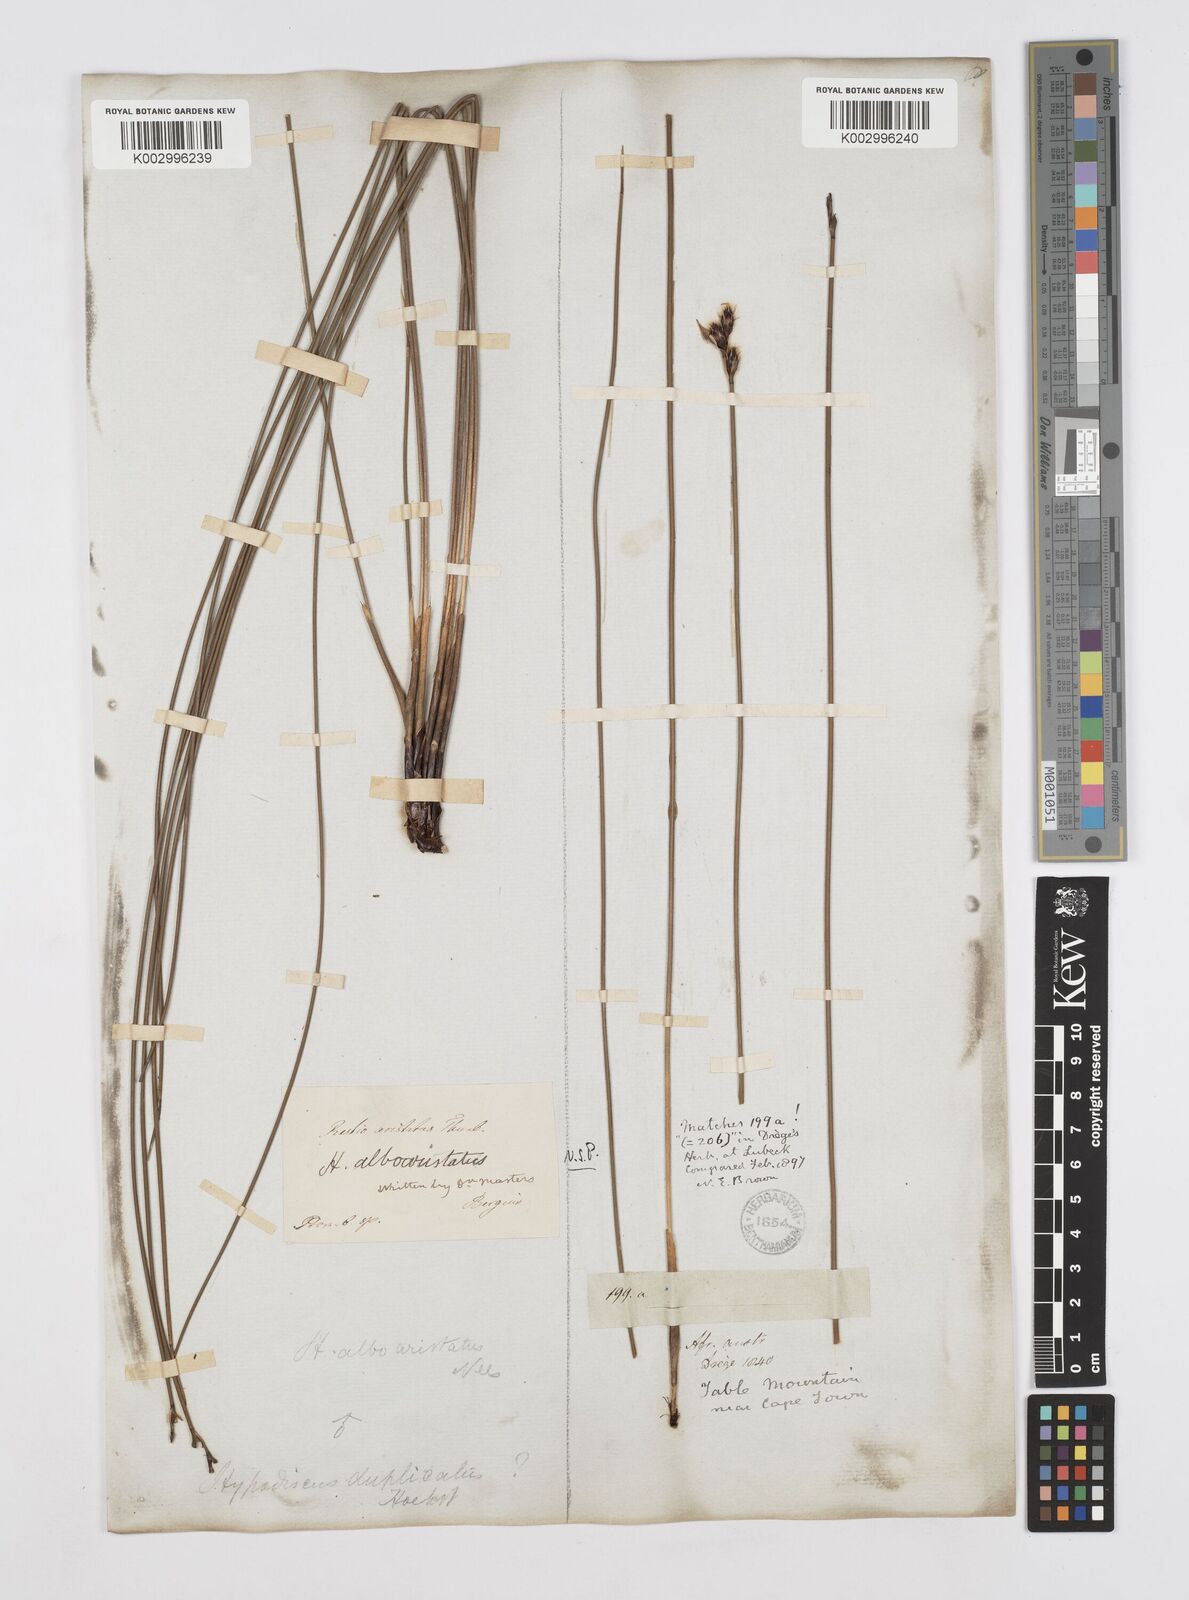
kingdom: Plantae
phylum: Tracheophyta
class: Liliopsida
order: Poales
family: Restionaceae
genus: Hypodiscus
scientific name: Hypodiscus alboaristatus
